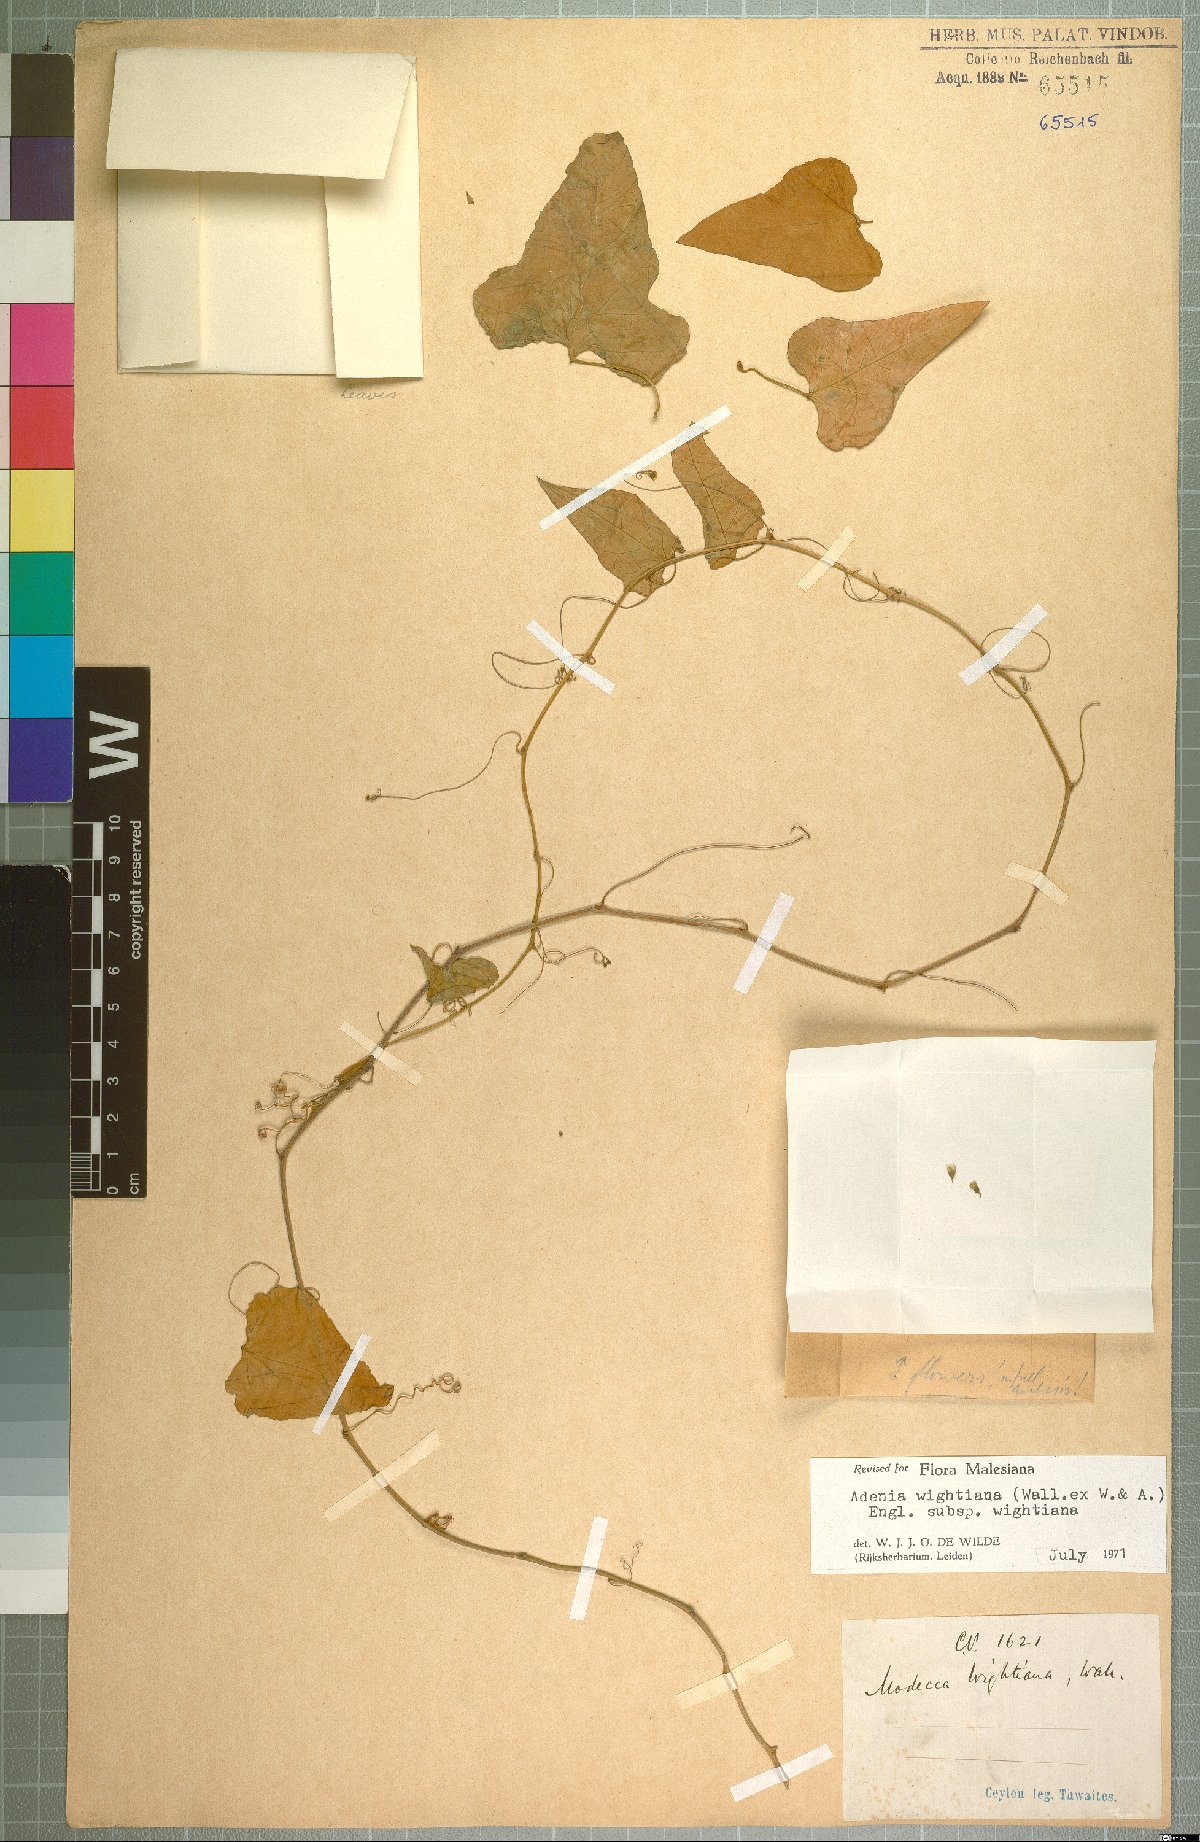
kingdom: Plantae
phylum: Tracheophyta
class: Magnoliopsida
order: Malpighiales
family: Passifloraceae
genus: Adenia
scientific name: Adenia wightiana
